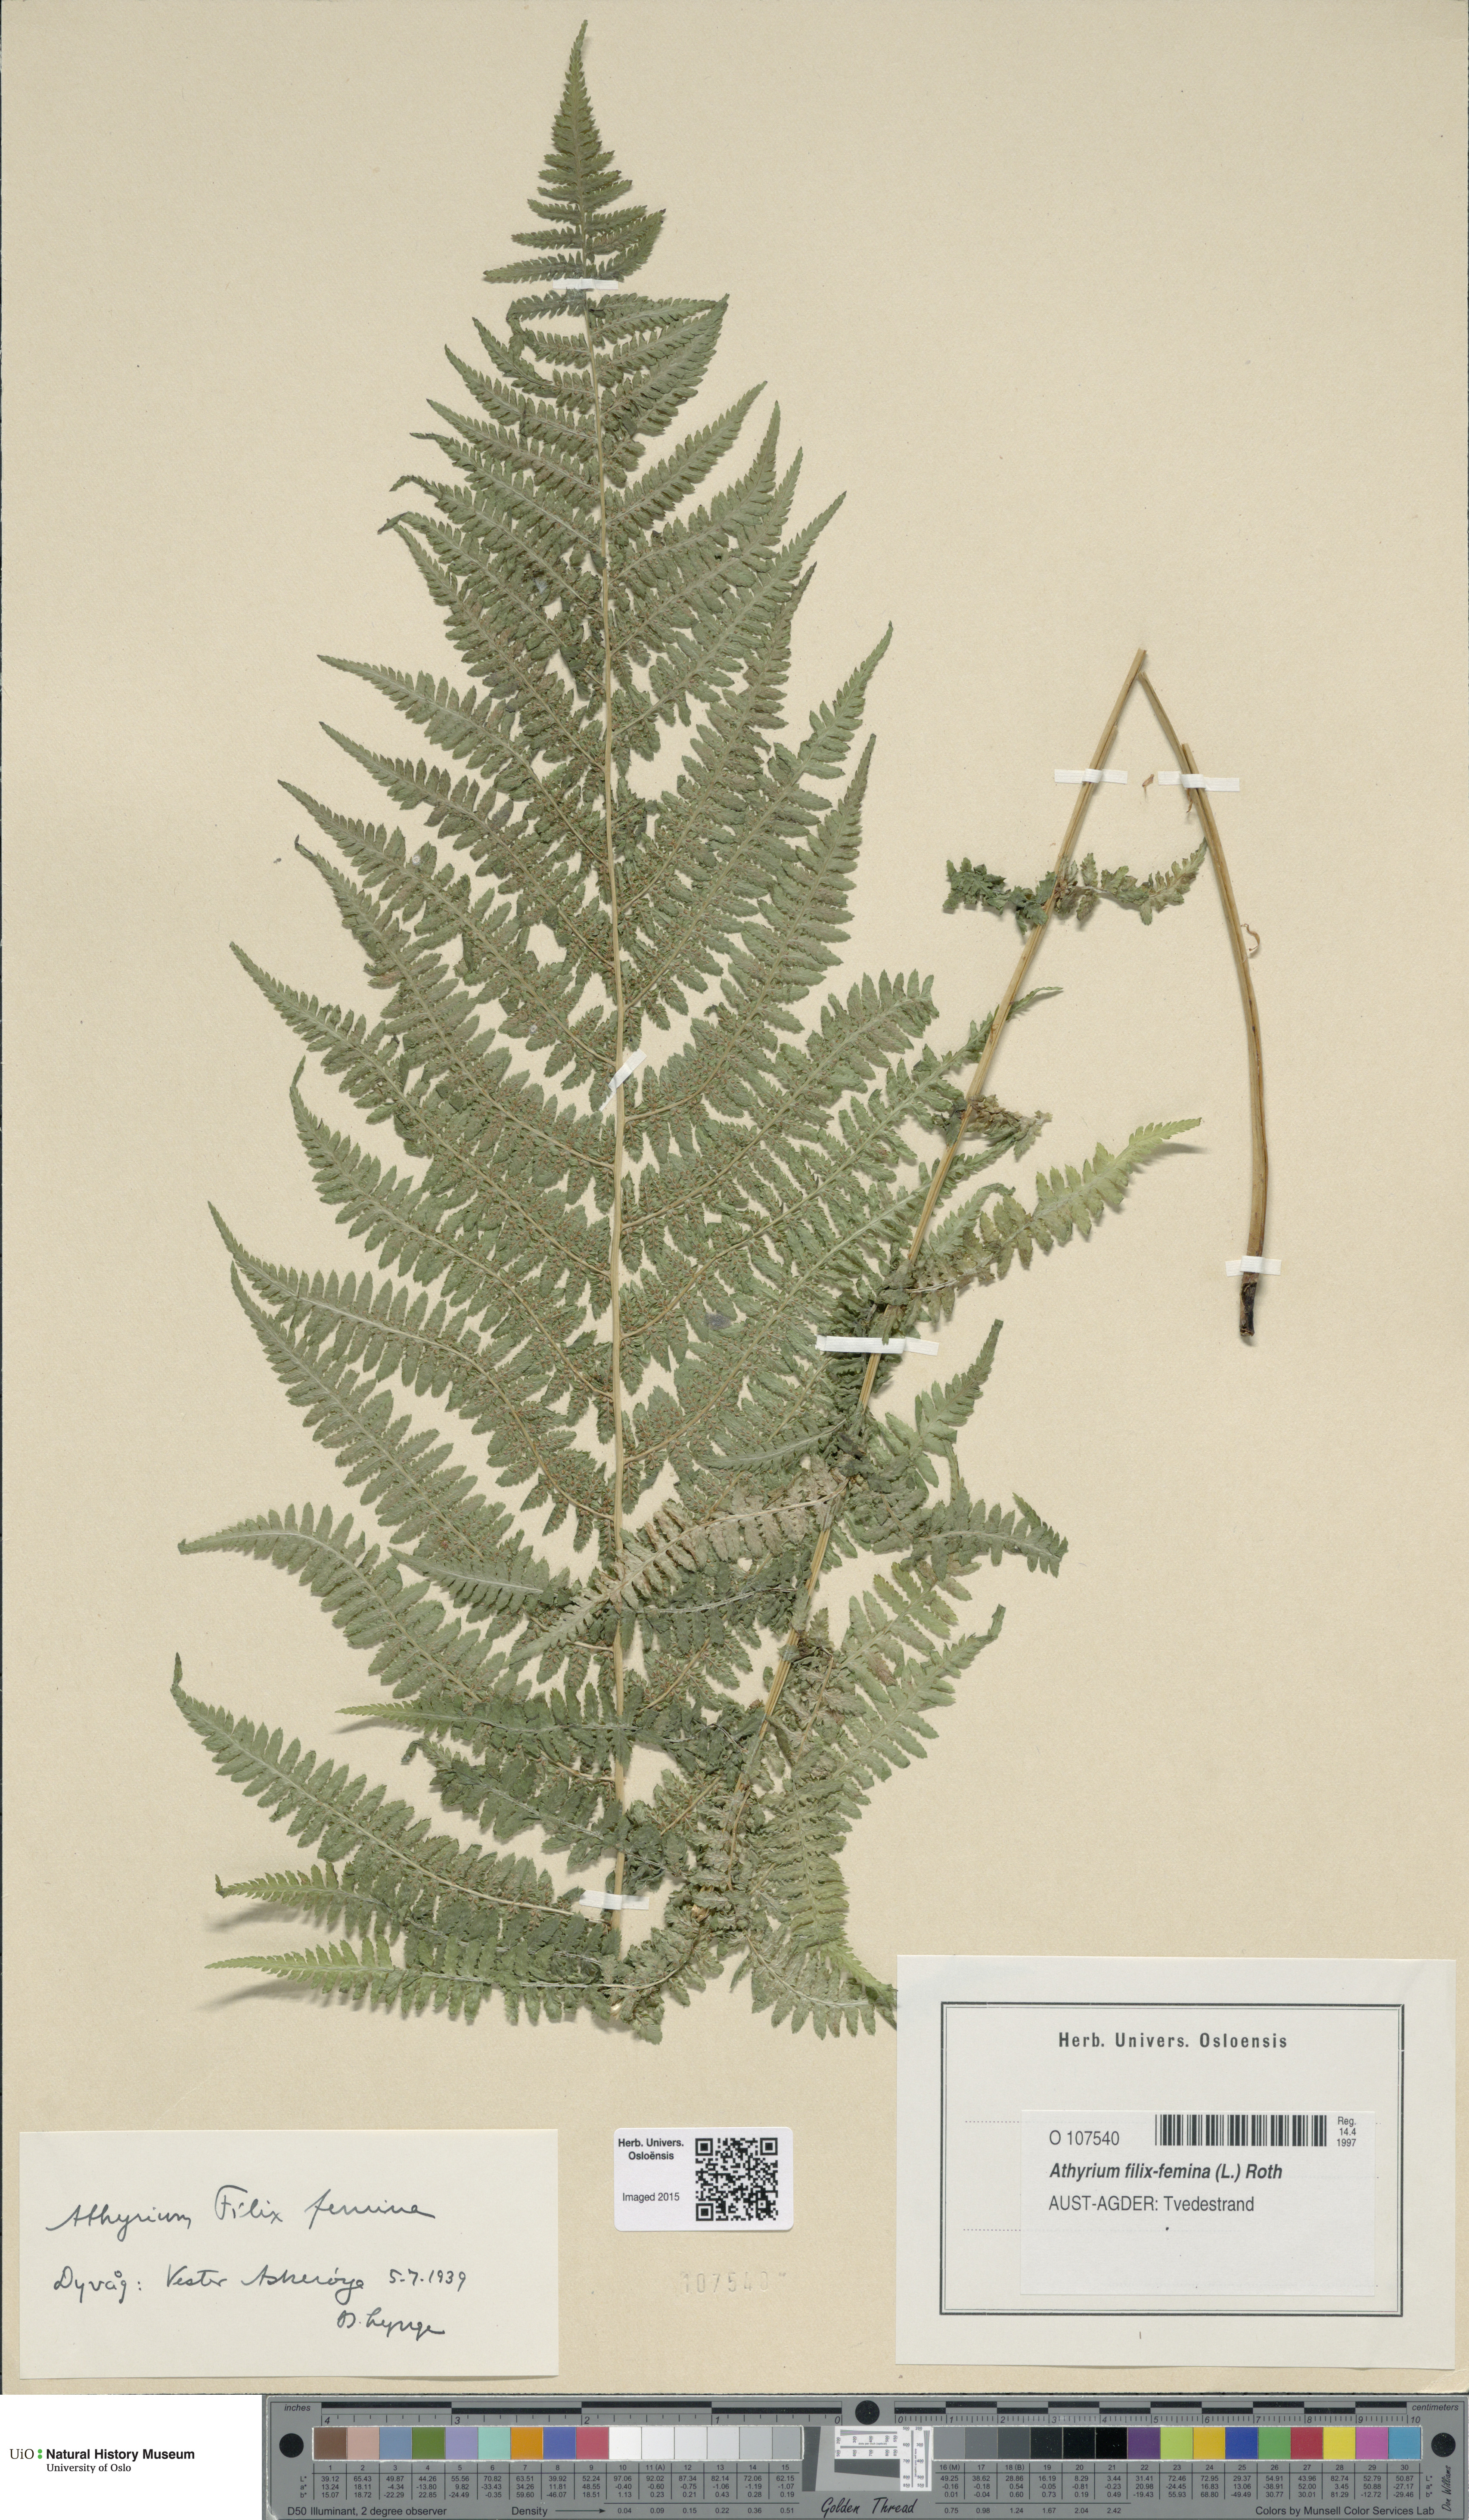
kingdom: Plantae
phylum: Tracheophyta
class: Polypodiopsida
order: Polypodiales
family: Athyriaceae
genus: Athyrium
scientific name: Athyrium filix-femina
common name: Lady fern
